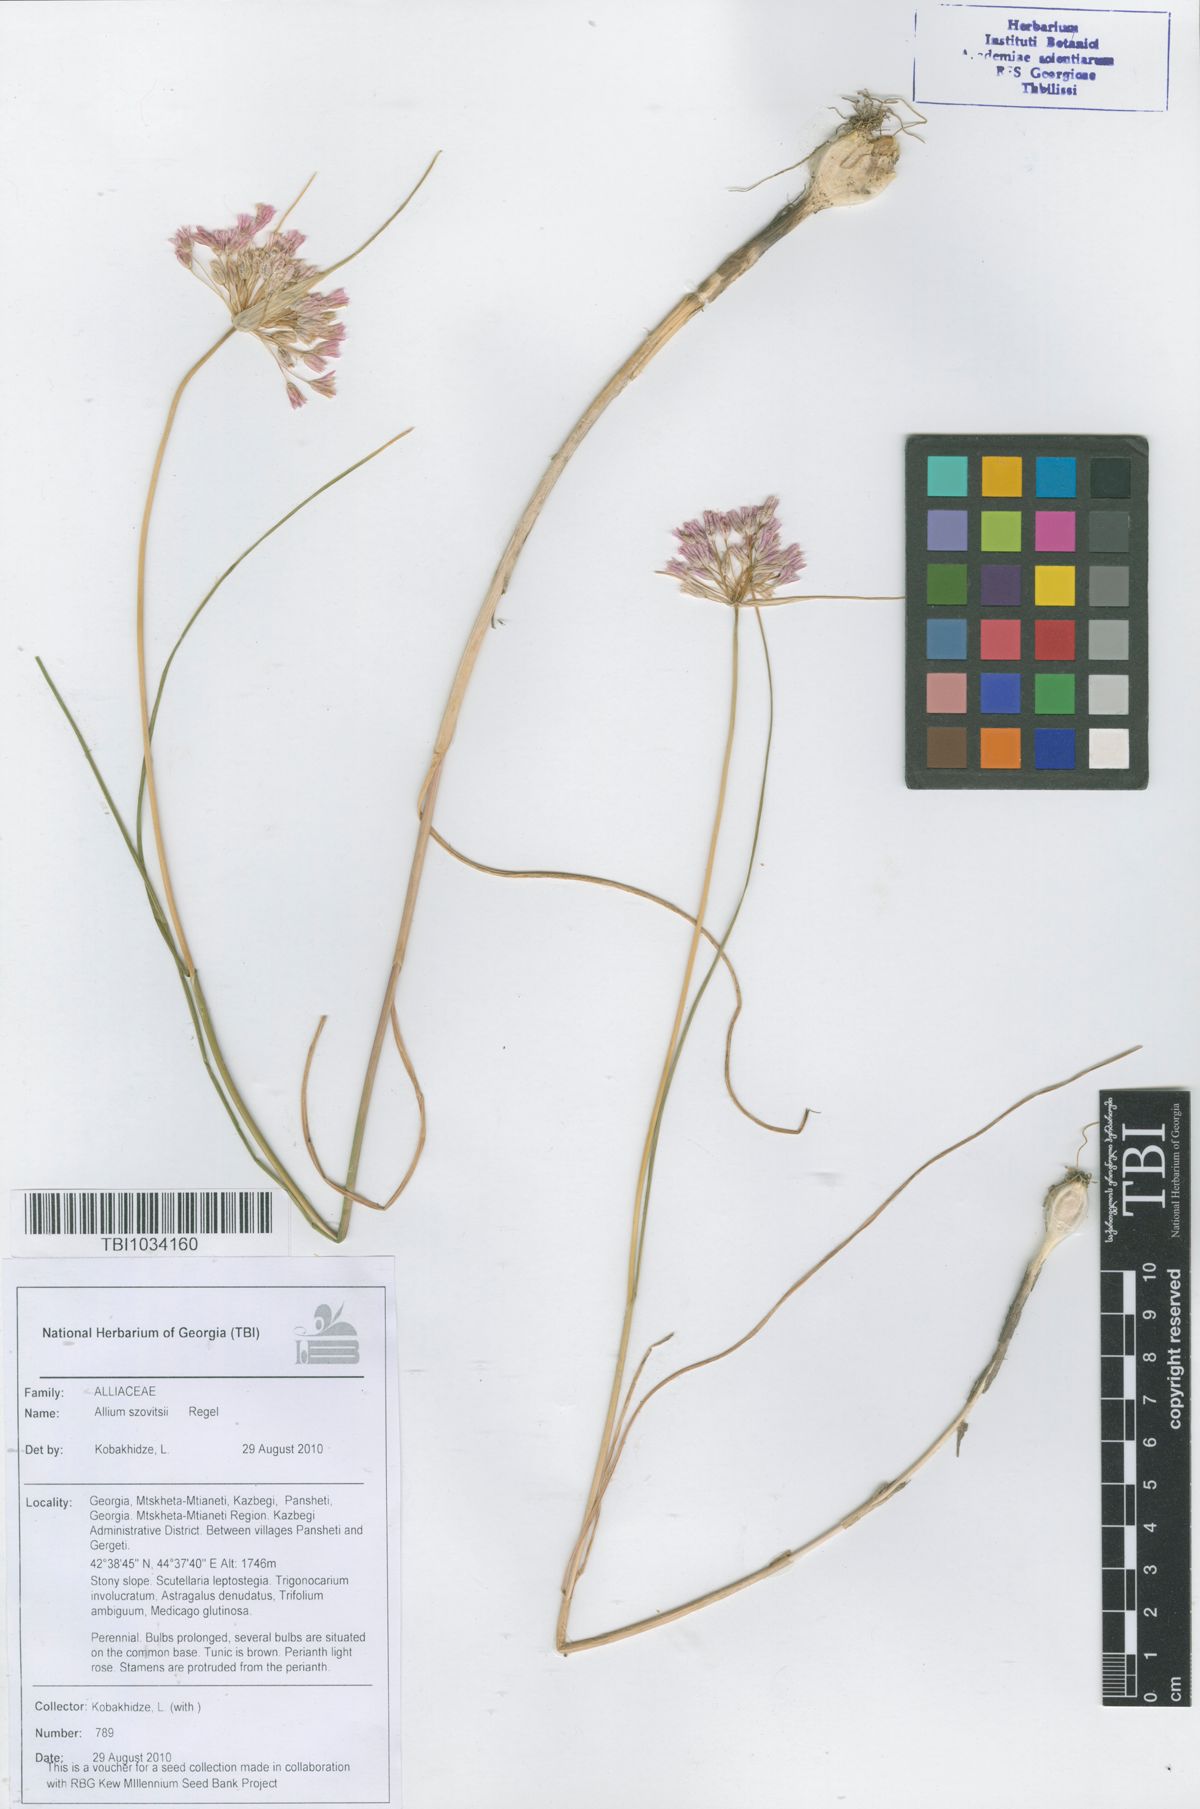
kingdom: Plantae
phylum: Tracheophyta
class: Liliopsida
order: Asparagales
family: Amaryllidaceae
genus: Allium
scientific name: Allium szovitsii
